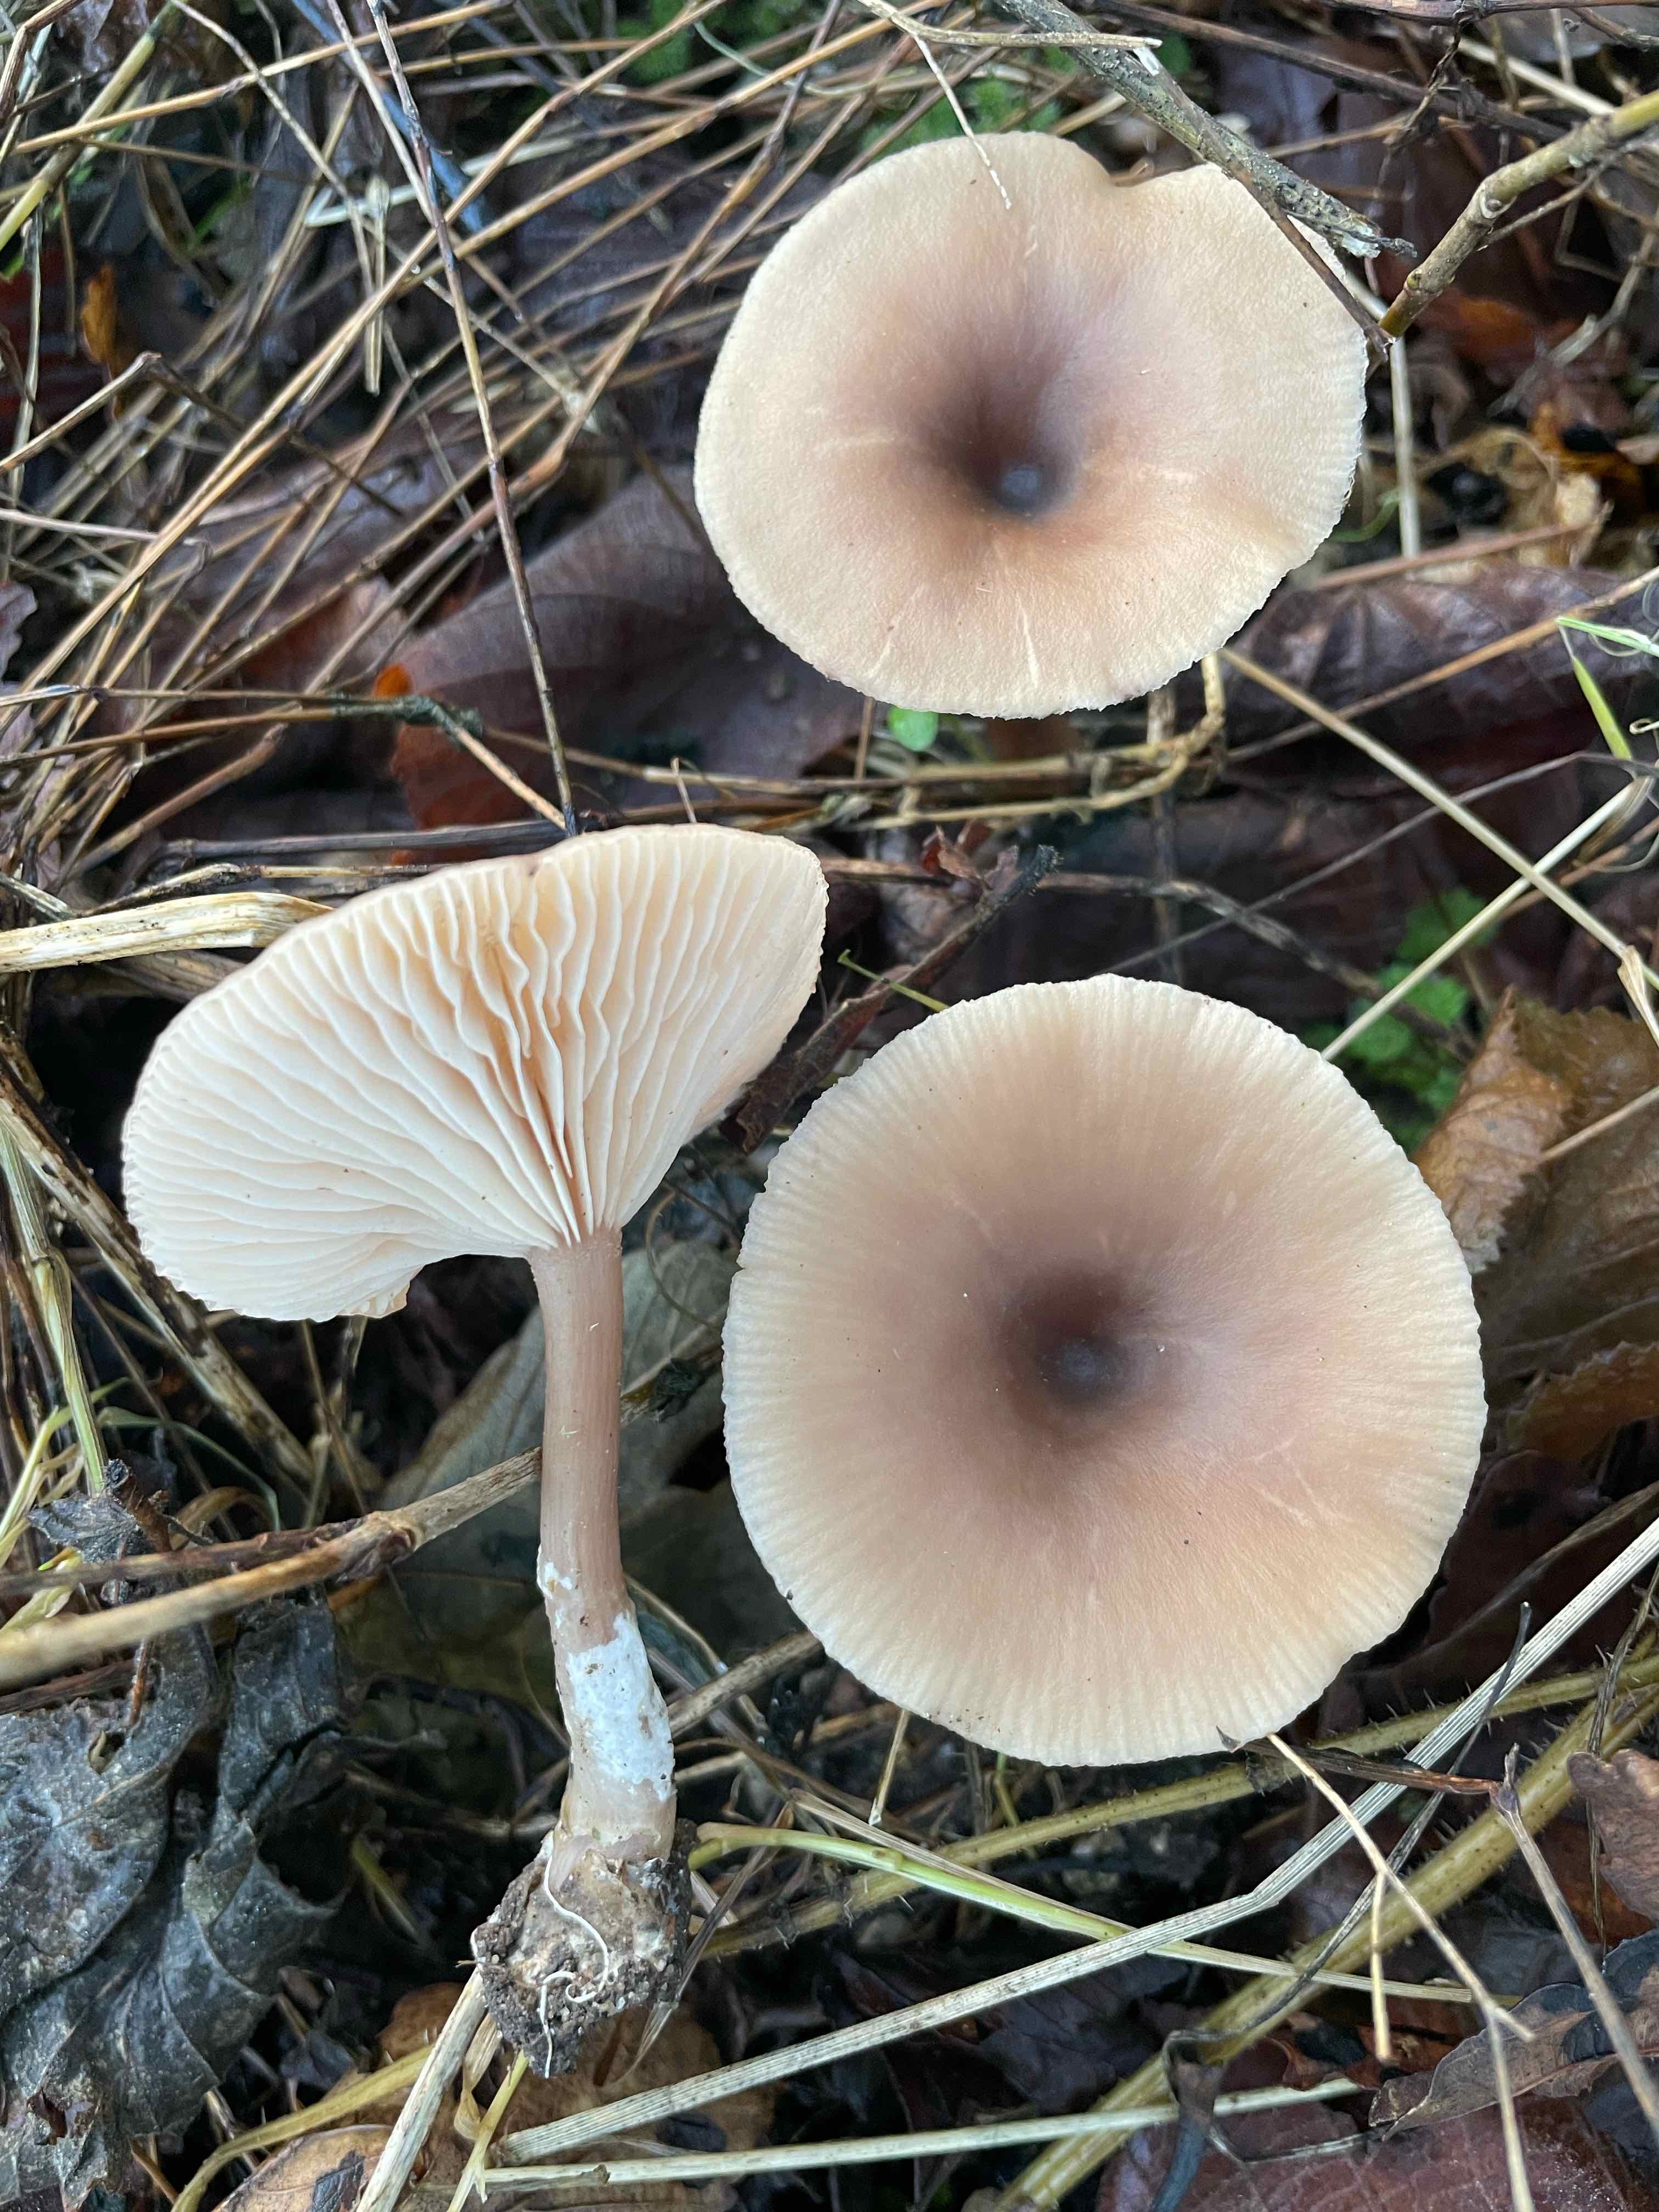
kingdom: Fungi
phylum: Basidiomycota
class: Agaricomycetes
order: Agaricales
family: Pseudoclitocybaceae
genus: Pseudoclitocybe
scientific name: Pseudoclitocybe cyathiformis
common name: almindelig bægertragthat
